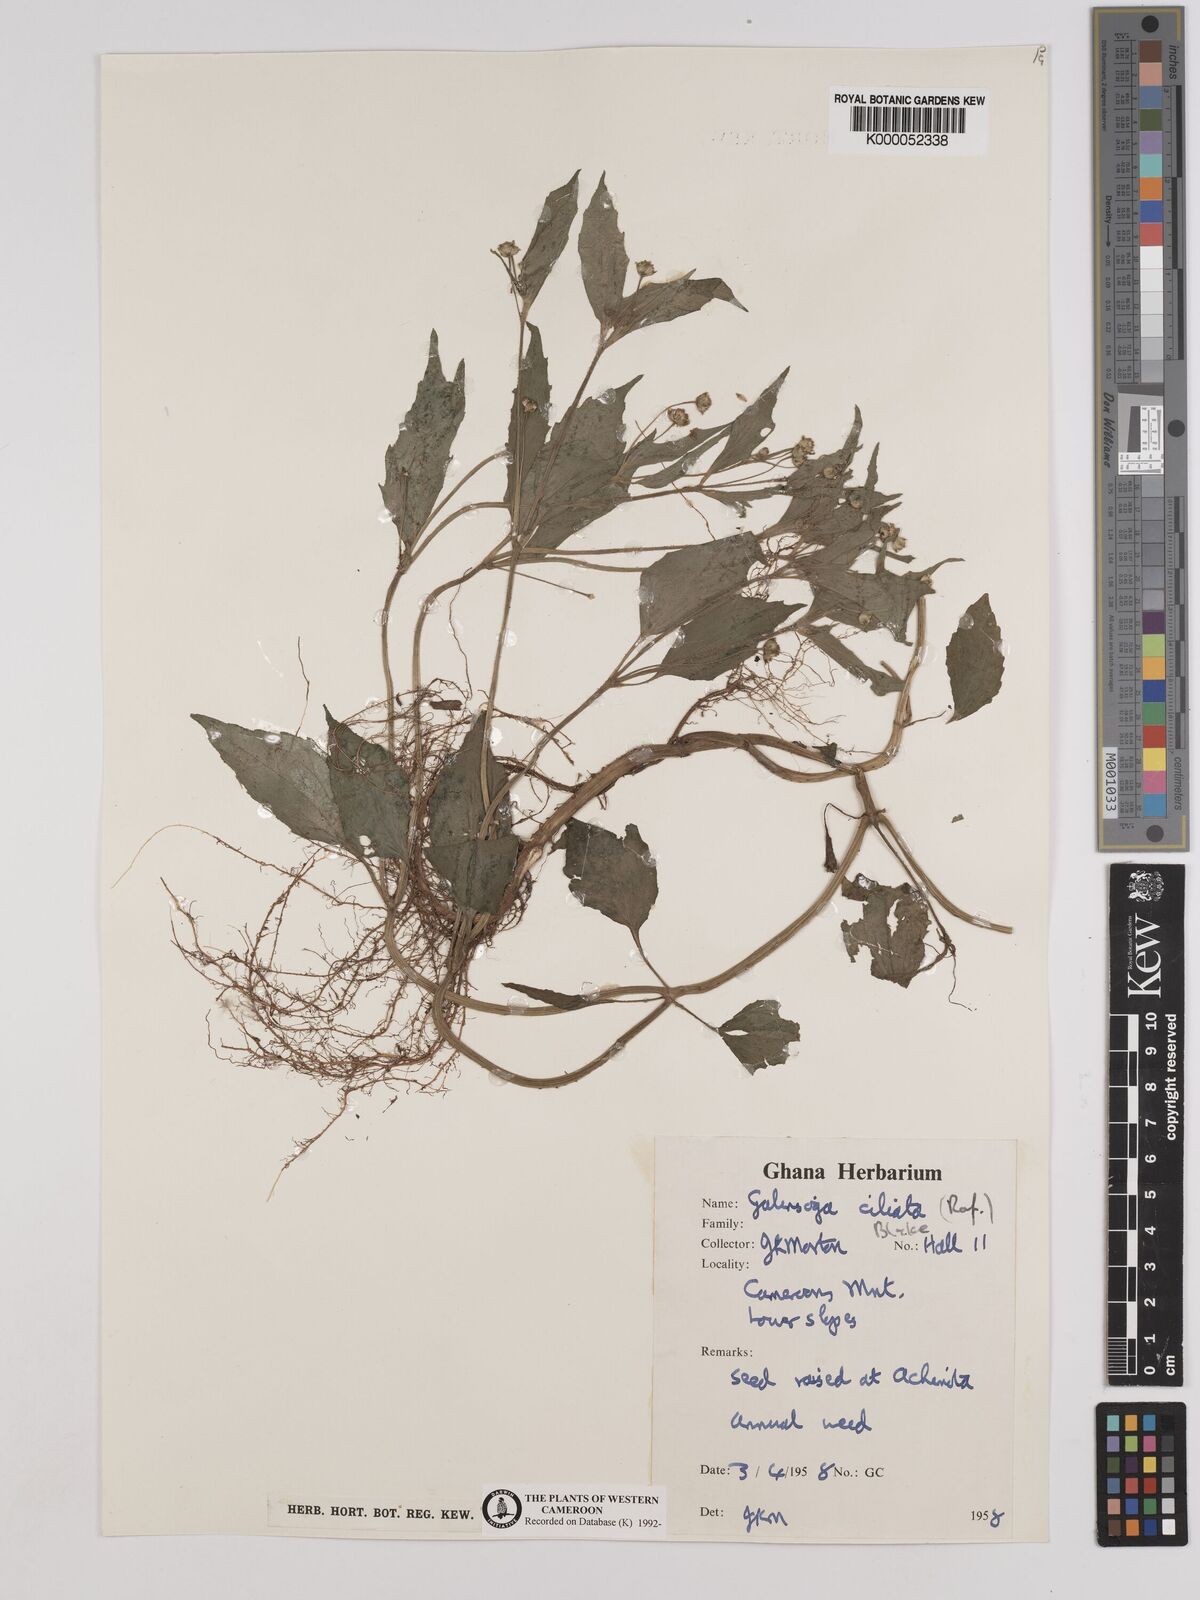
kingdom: Plantae
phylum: Tracheophyta
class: Magnoliopsida
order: Asterales
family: Asteraceae
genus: Galinsoga
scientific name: Galinsoga quadriradiata
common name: Shaggy soldier
